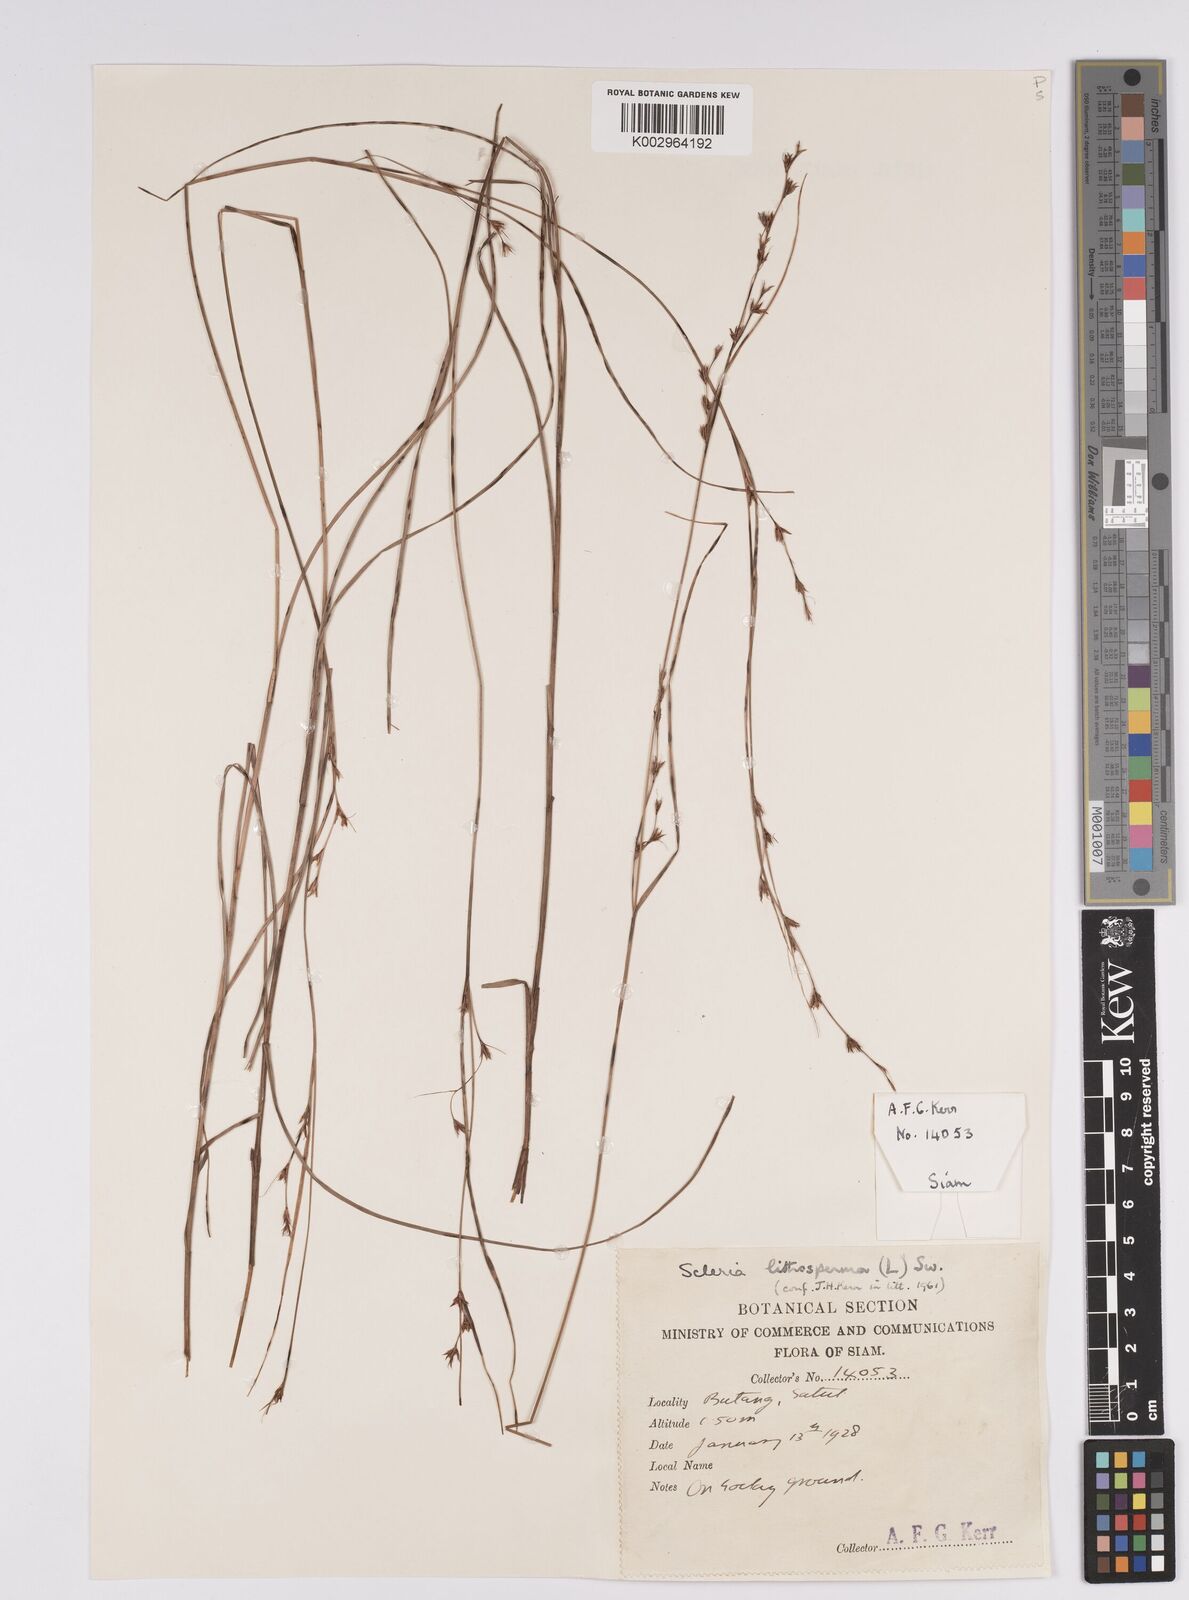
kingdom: Plantae
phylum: Tracheophyta
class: Liliopsida
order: Poales
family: Cyperaceae
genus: Scleria
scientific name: Scleria lithosperma
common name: Florida keys nut-rush
